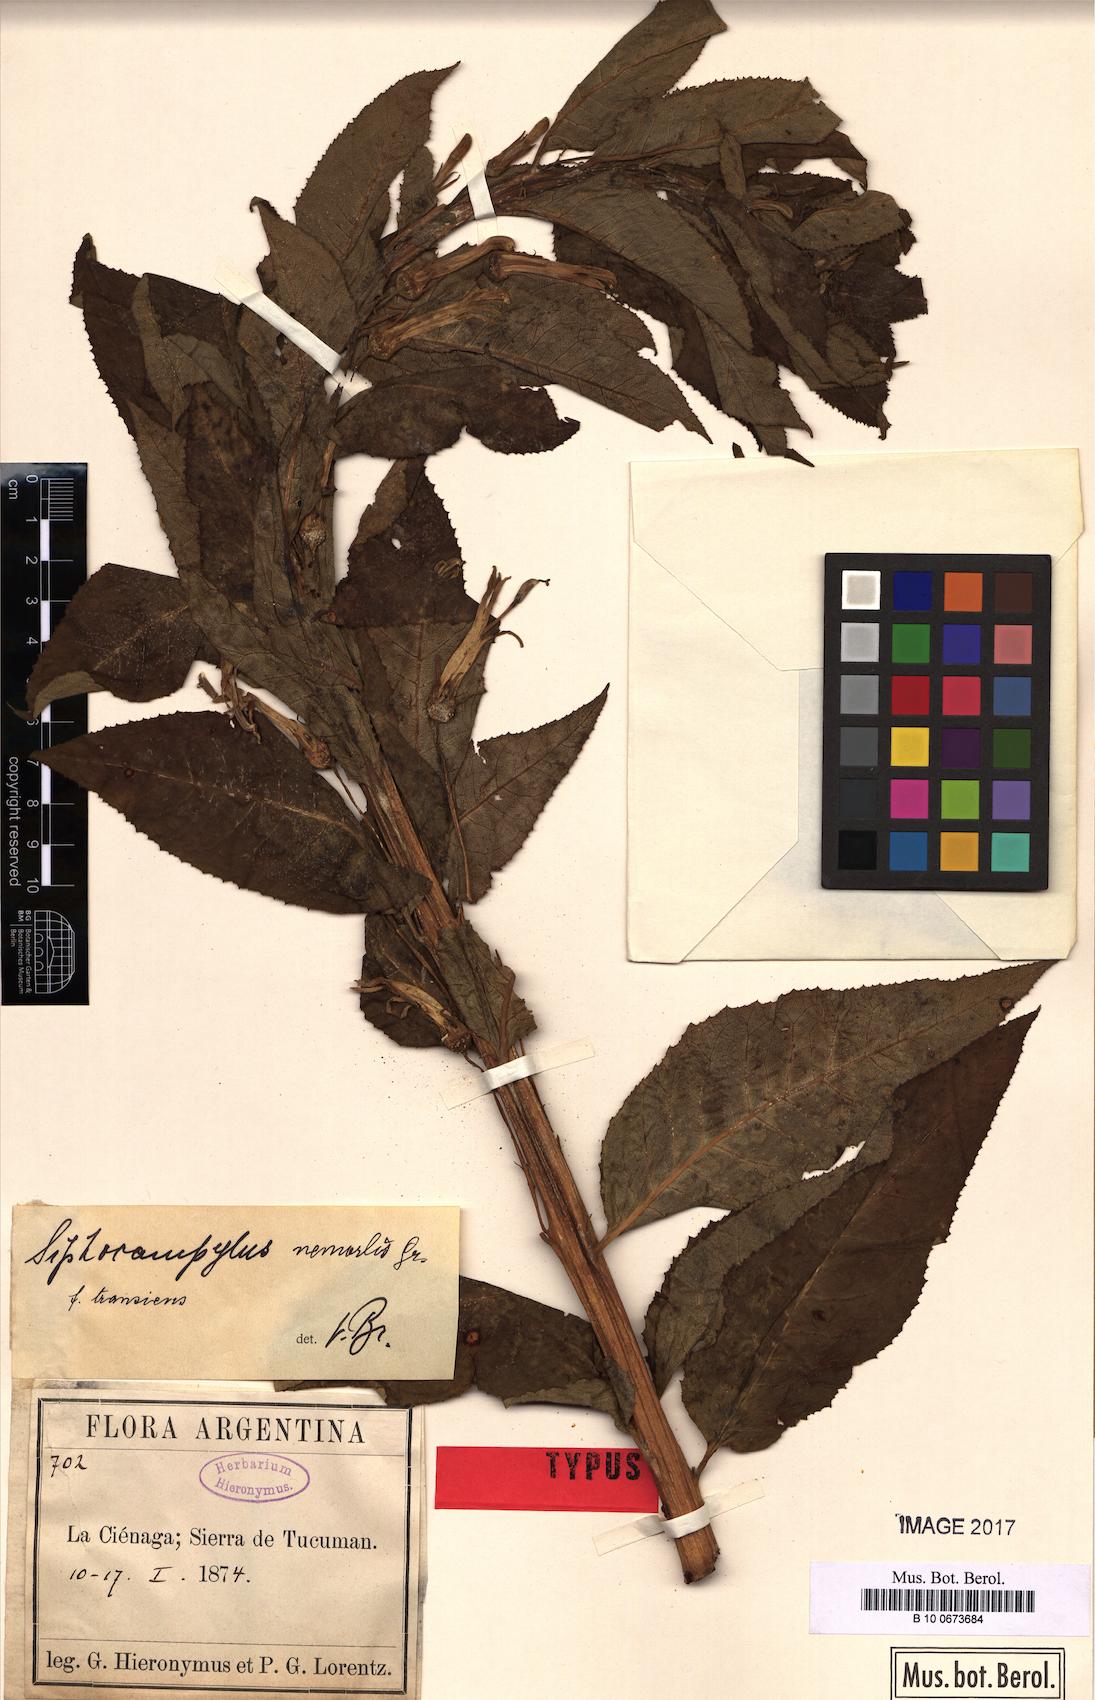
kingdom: Plantae
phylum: Tracheophyta
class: Magnoliopsida
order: Asterales
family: Campanulaceae
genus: Siphocampylus
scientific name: Siphocampylus nemoralis
